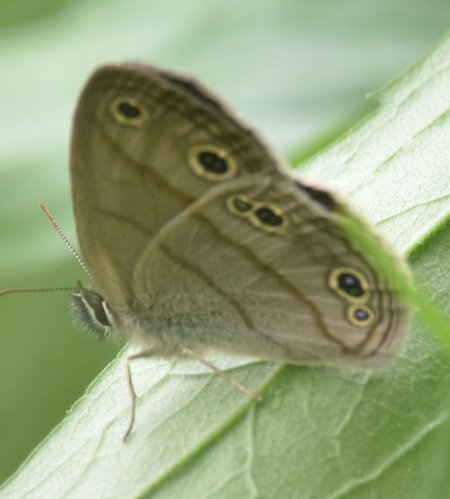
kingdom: Animalia
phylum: Arthropoda
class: Insecta
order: Lepidoptera
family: Nymphalidae
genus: Euptychia
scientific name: Euptychia cymela
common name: Little Wood Satyr
